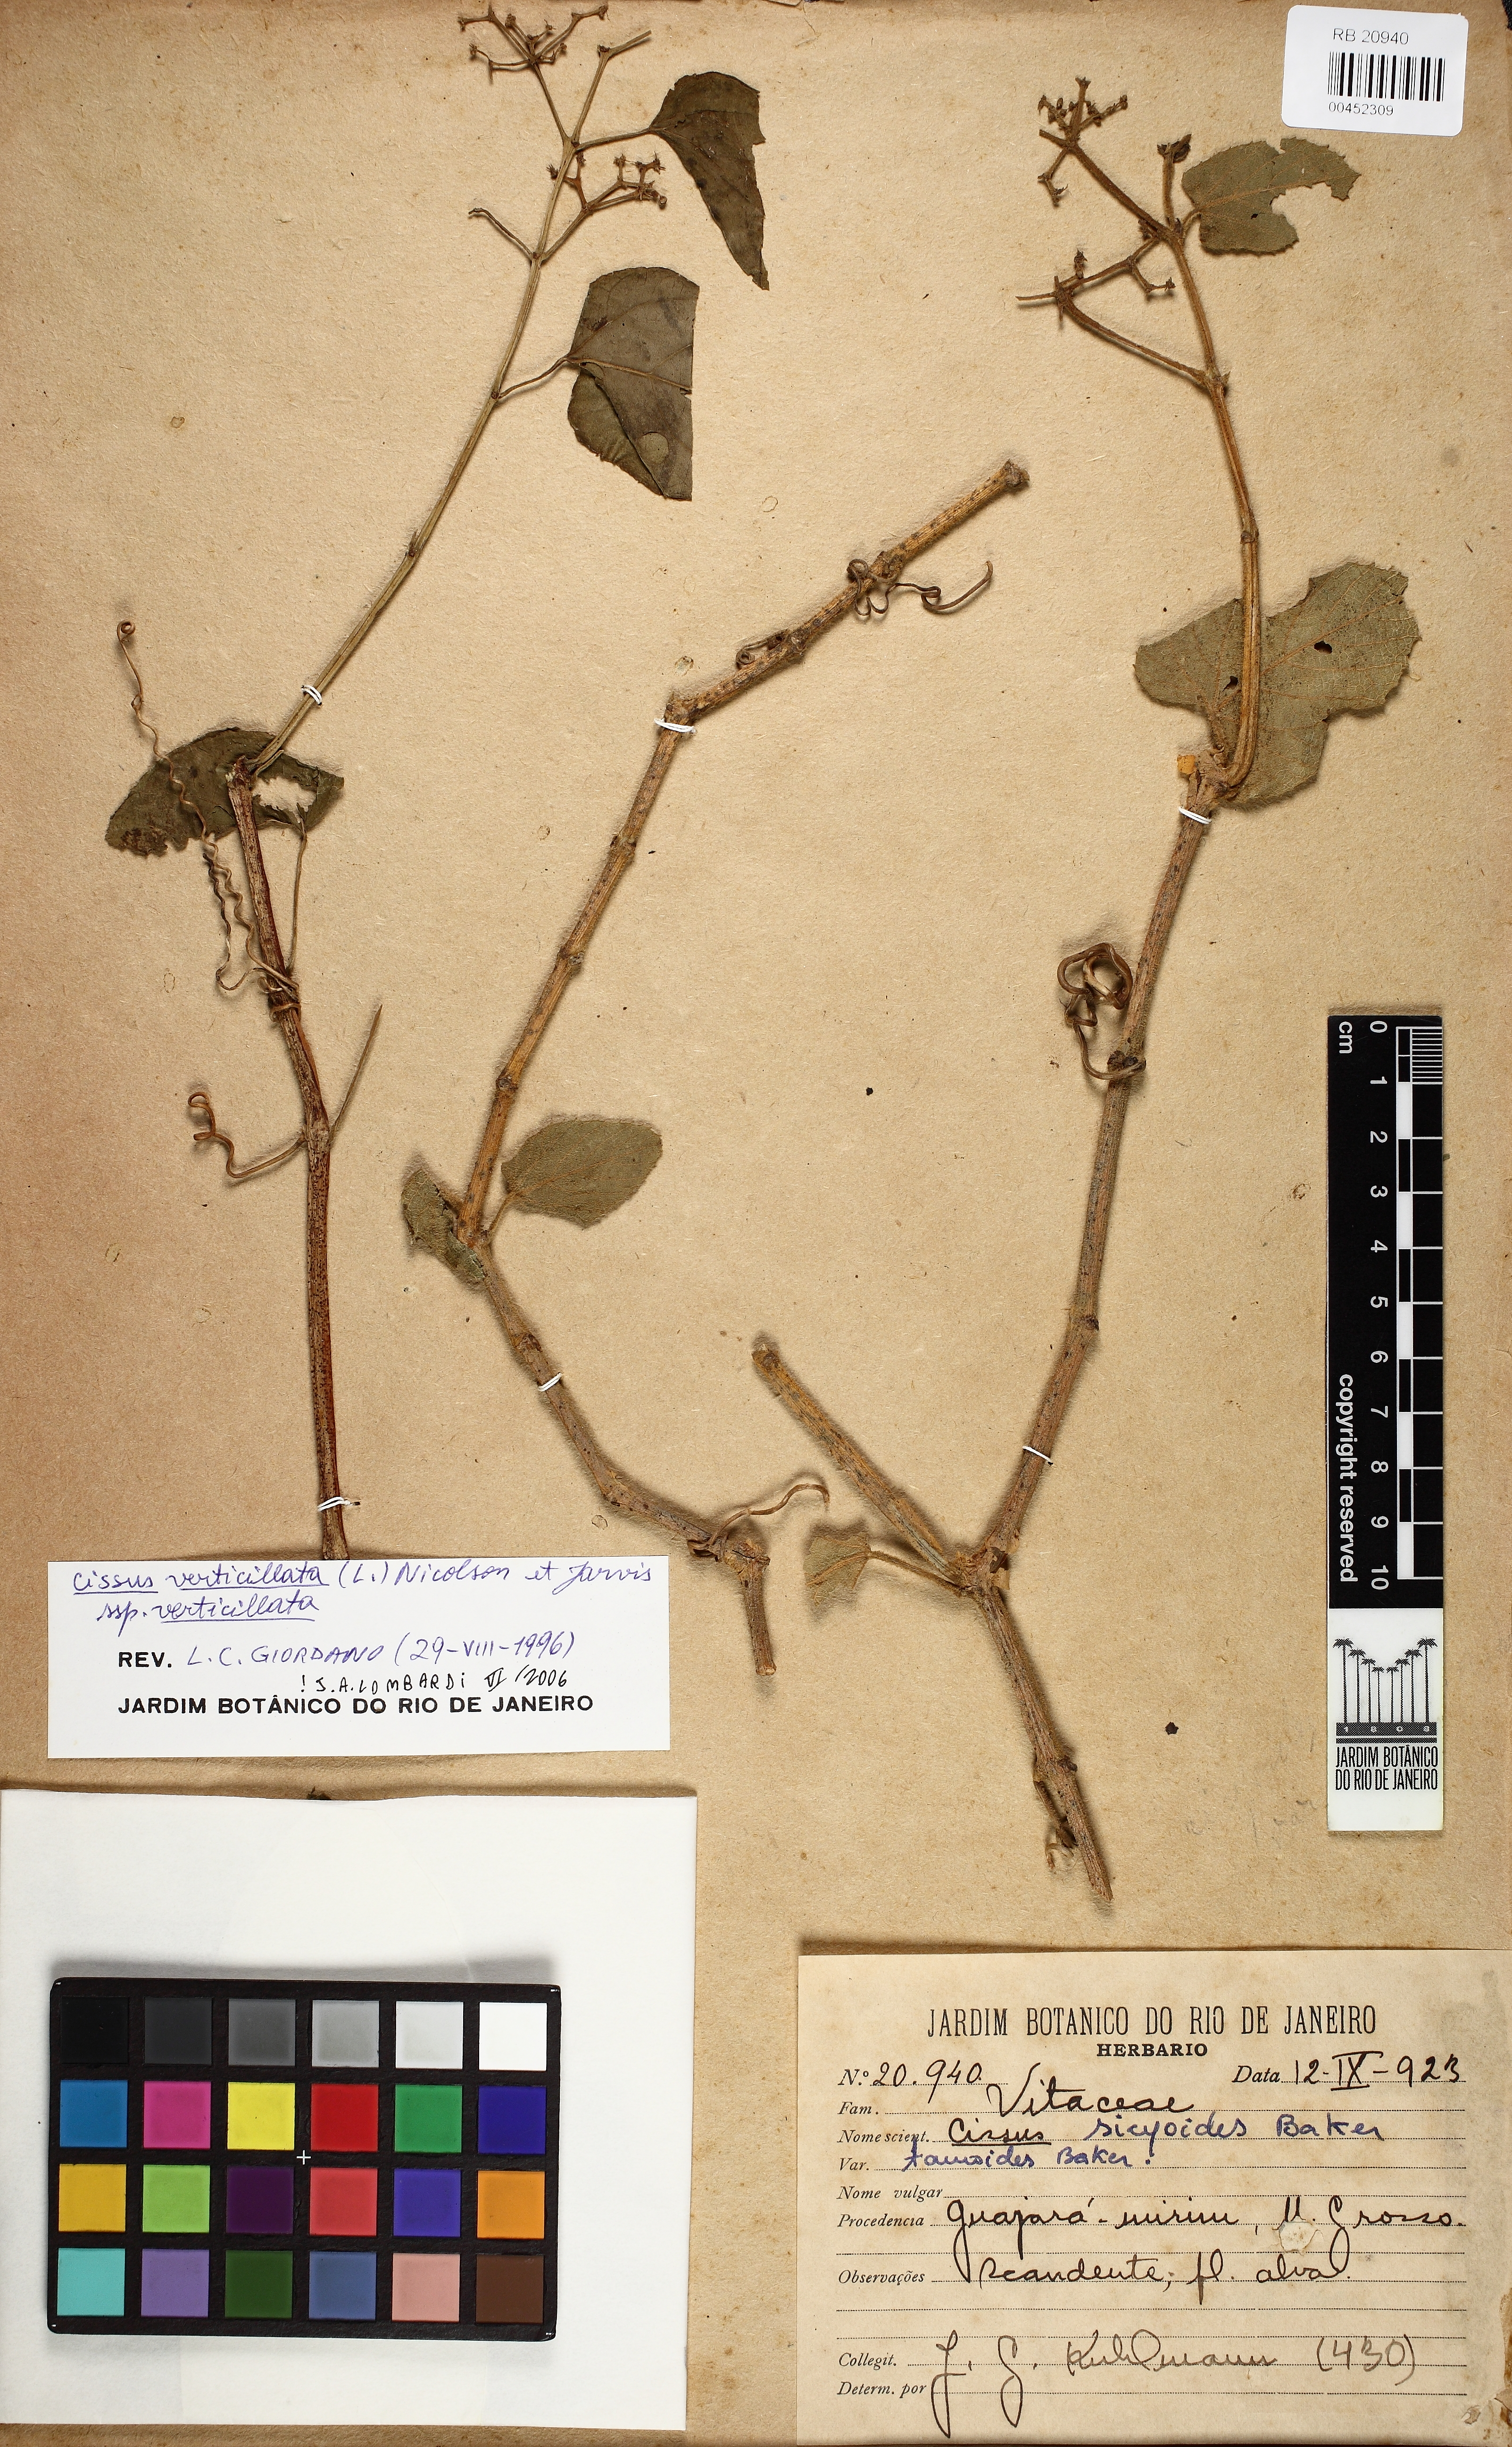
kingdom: Plantae
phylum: Tracheophyta
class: Magnoliopsida
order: Vitales
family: Vitaceae
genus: Cissus
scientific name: Cissus verticillata
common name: Princess vine
